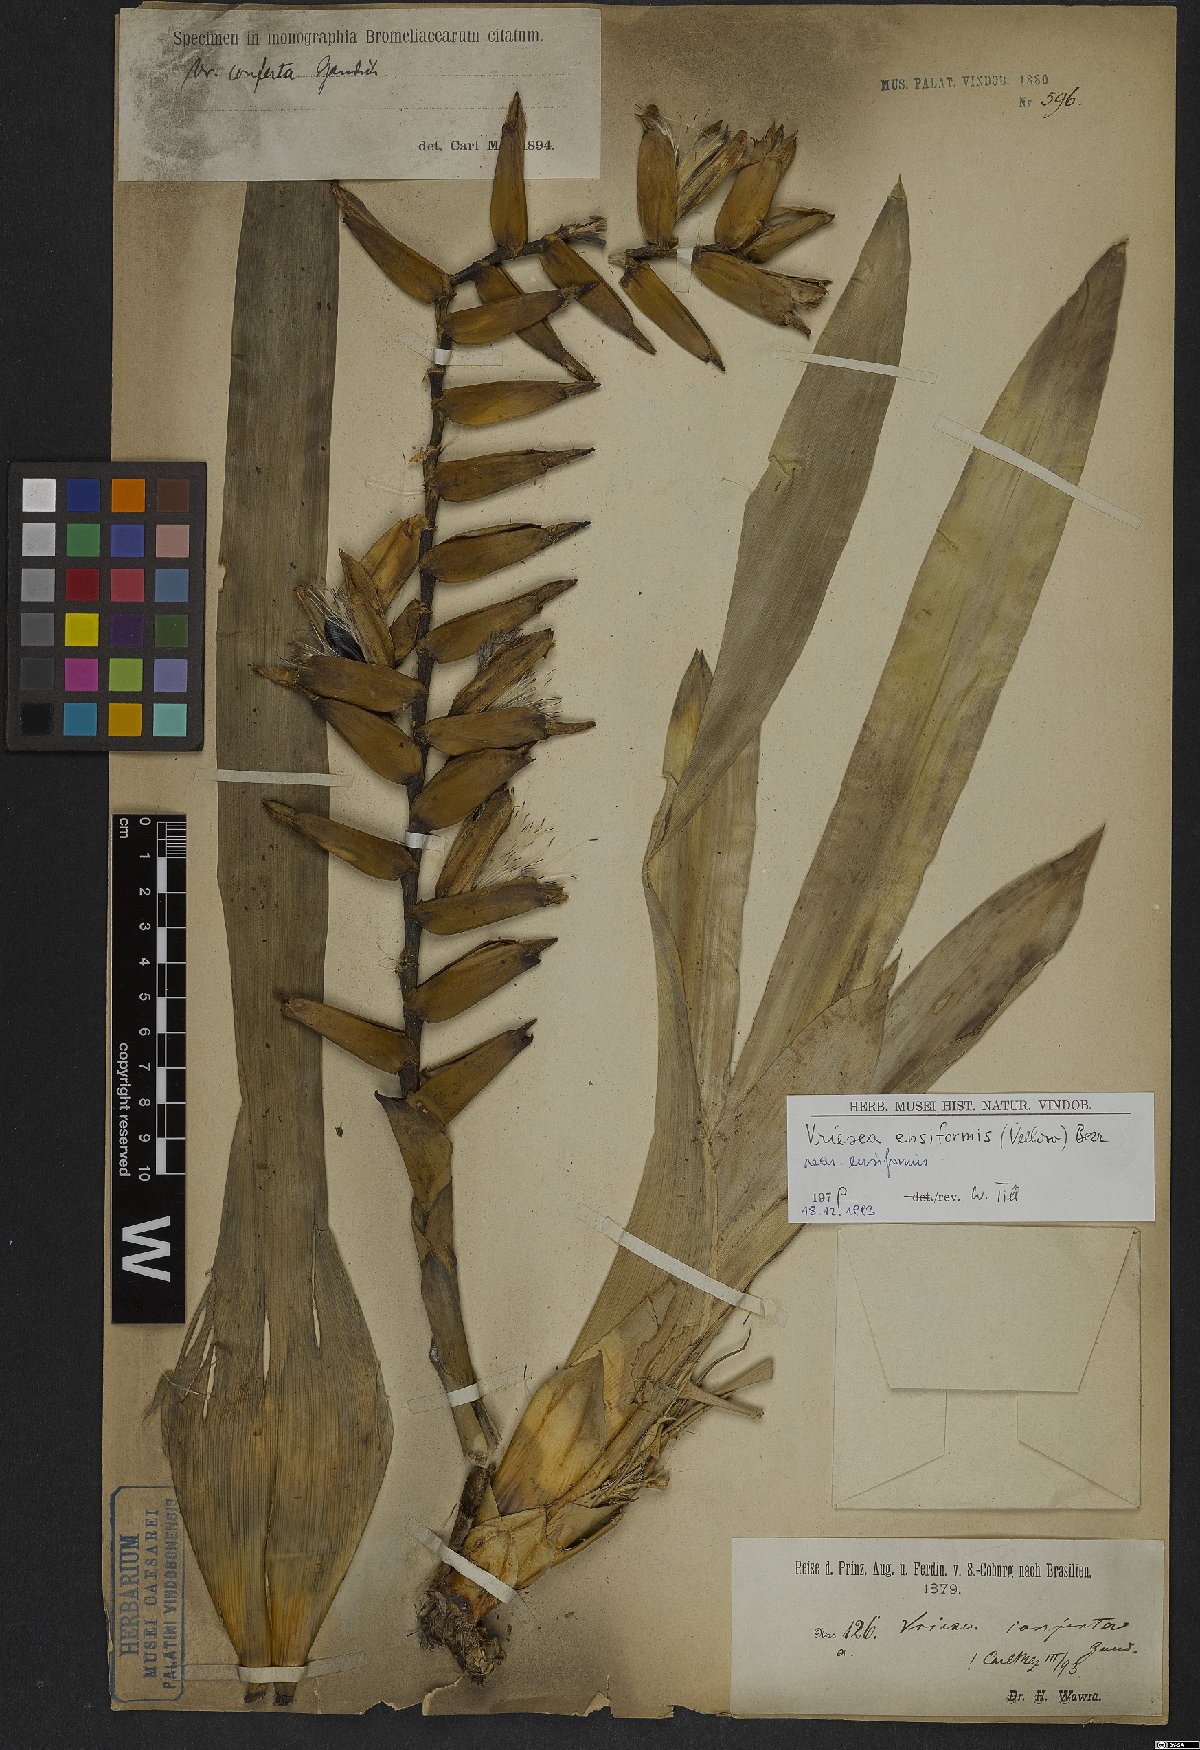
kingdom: Plantae
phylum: Tracheophyta
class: Liliopsida
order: Poales
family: Bromeliaceae
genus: Vriesea
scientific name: Vriesea ensiformis
